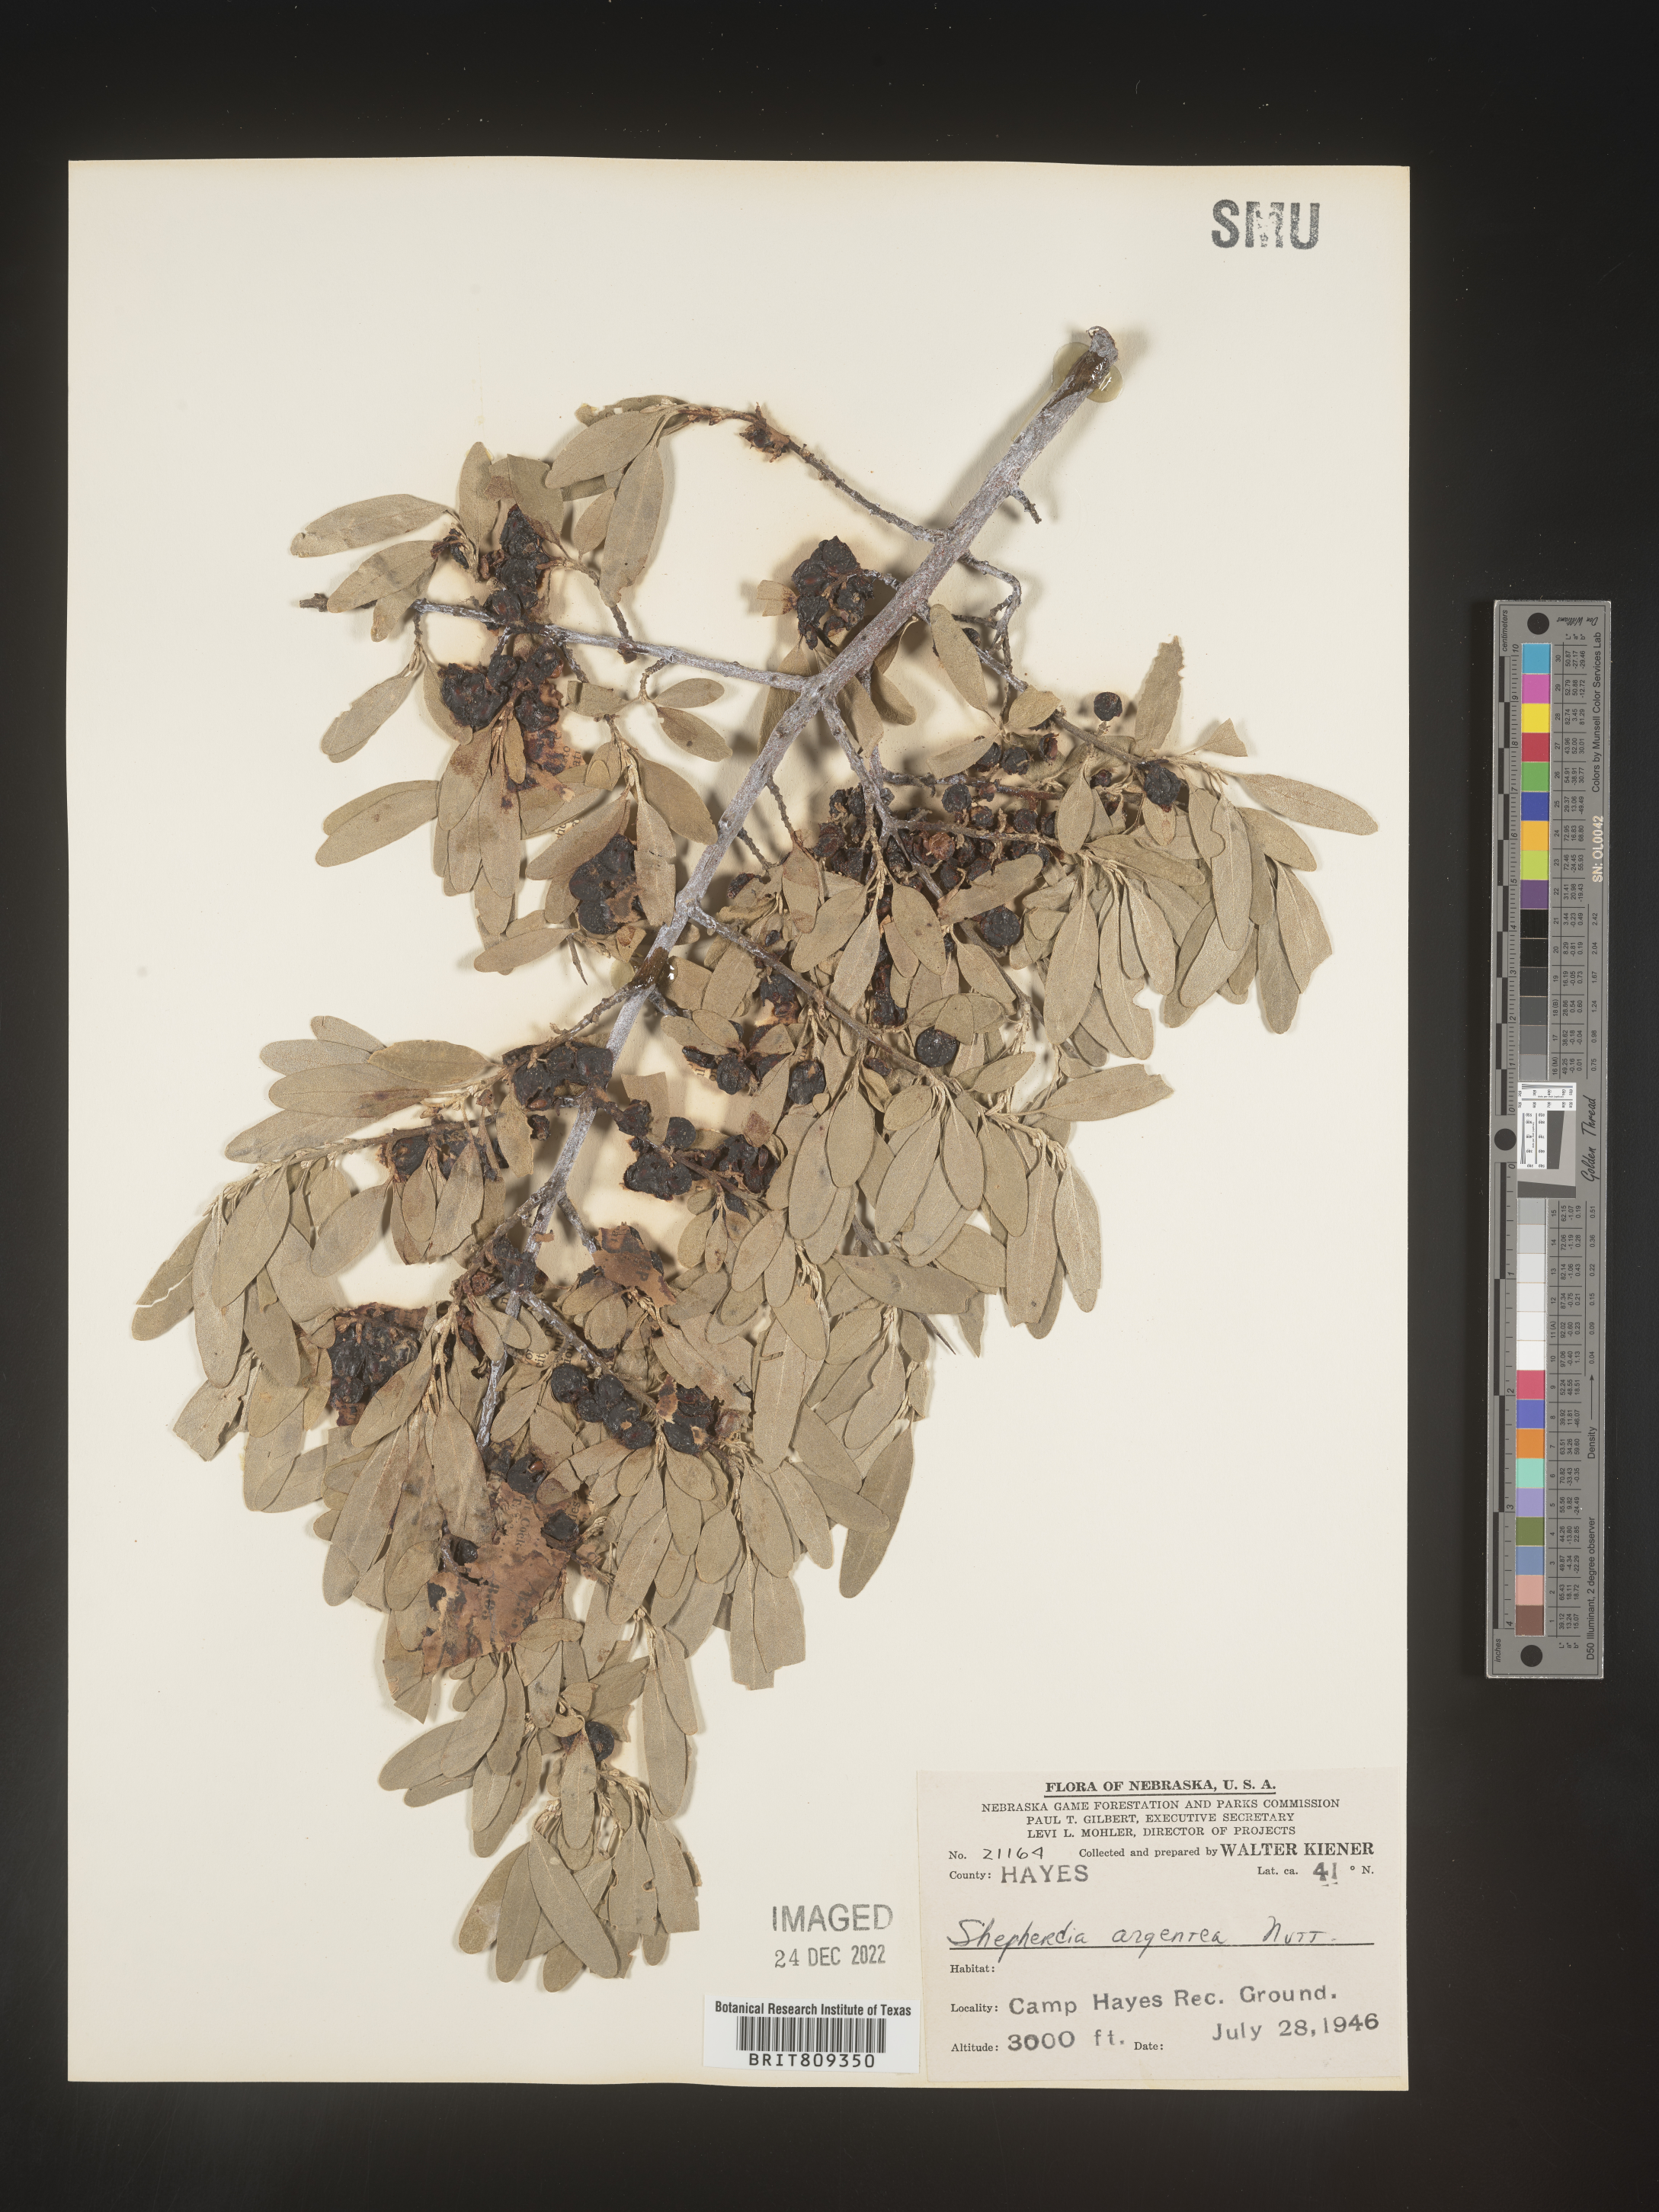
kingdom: Plantae
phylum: Tracheophyta
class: Magnoliopsida
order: Rosales
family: Elaeagnaceae
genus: Shepherdia
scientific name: Shepherdia argentea
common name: Silver buffaloberry
